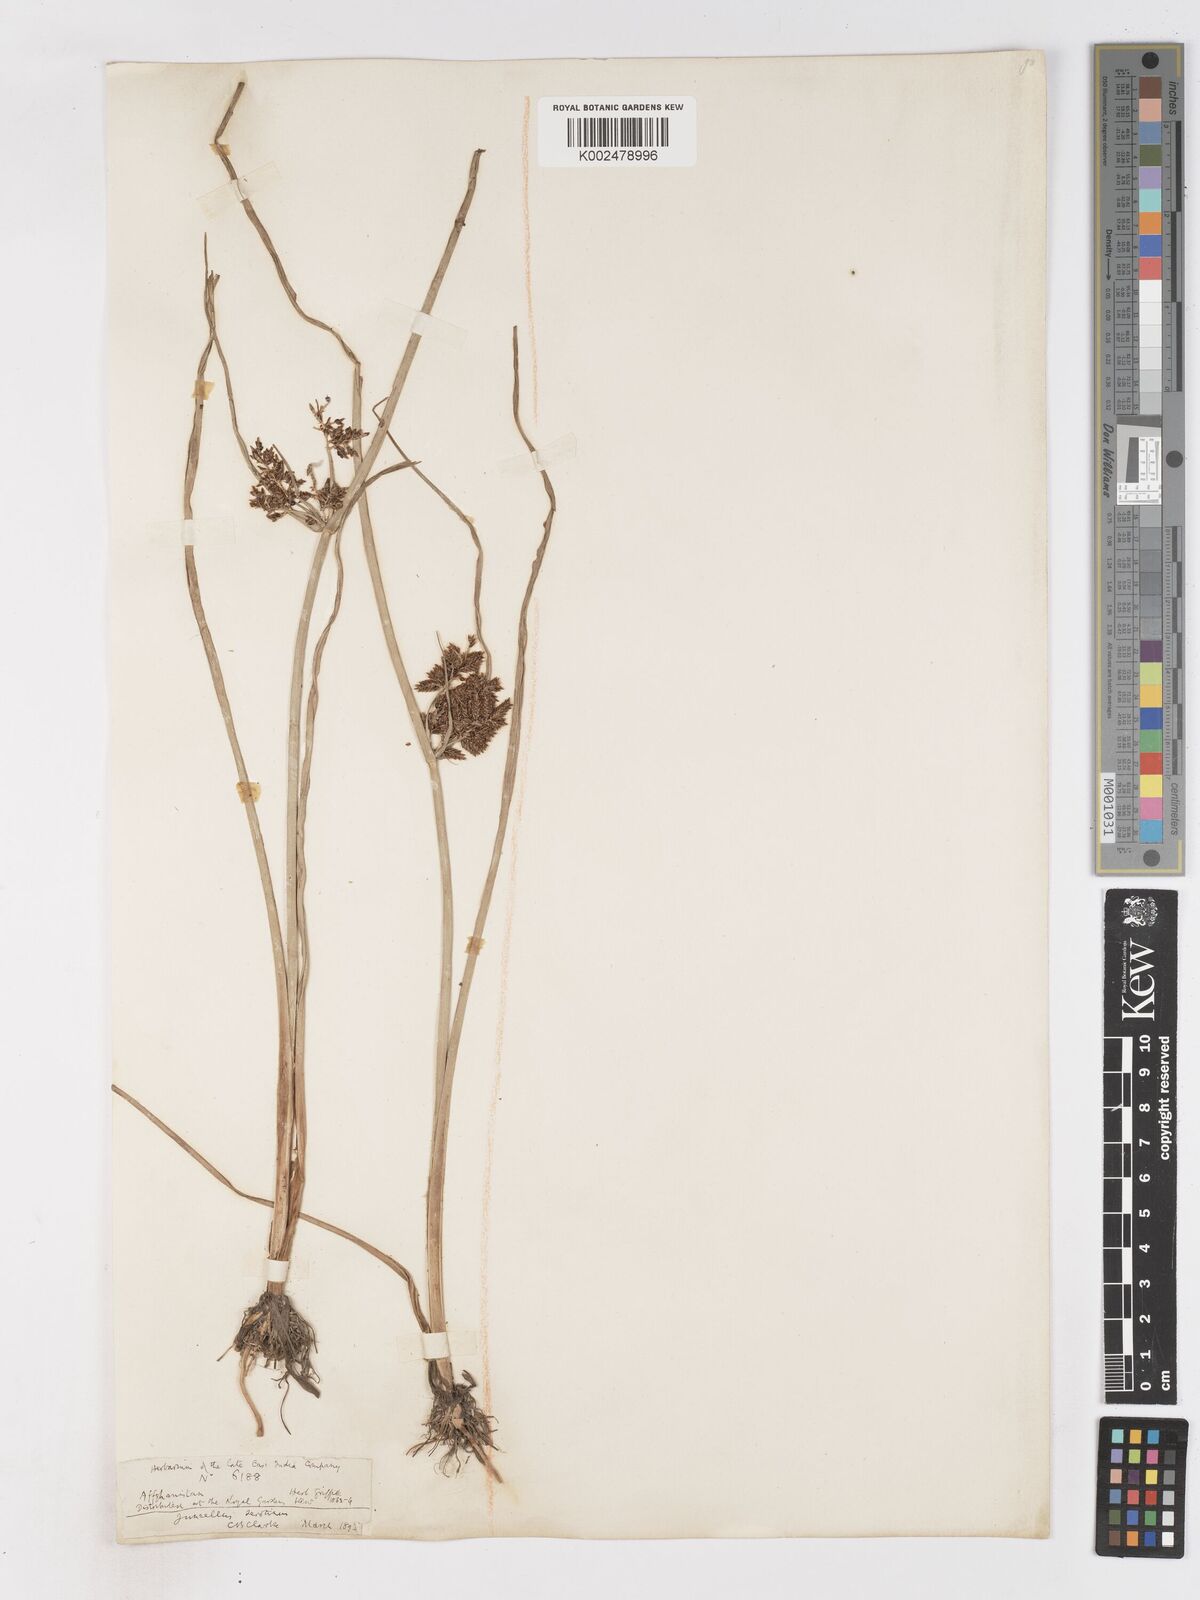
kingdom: Plantae
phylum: Tracheophyta
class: Liliopsida
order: Poales
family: Cyperaceae
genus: Cyperus
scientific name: Cyperus serotinus
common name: Tidalmarsh flatsedge
